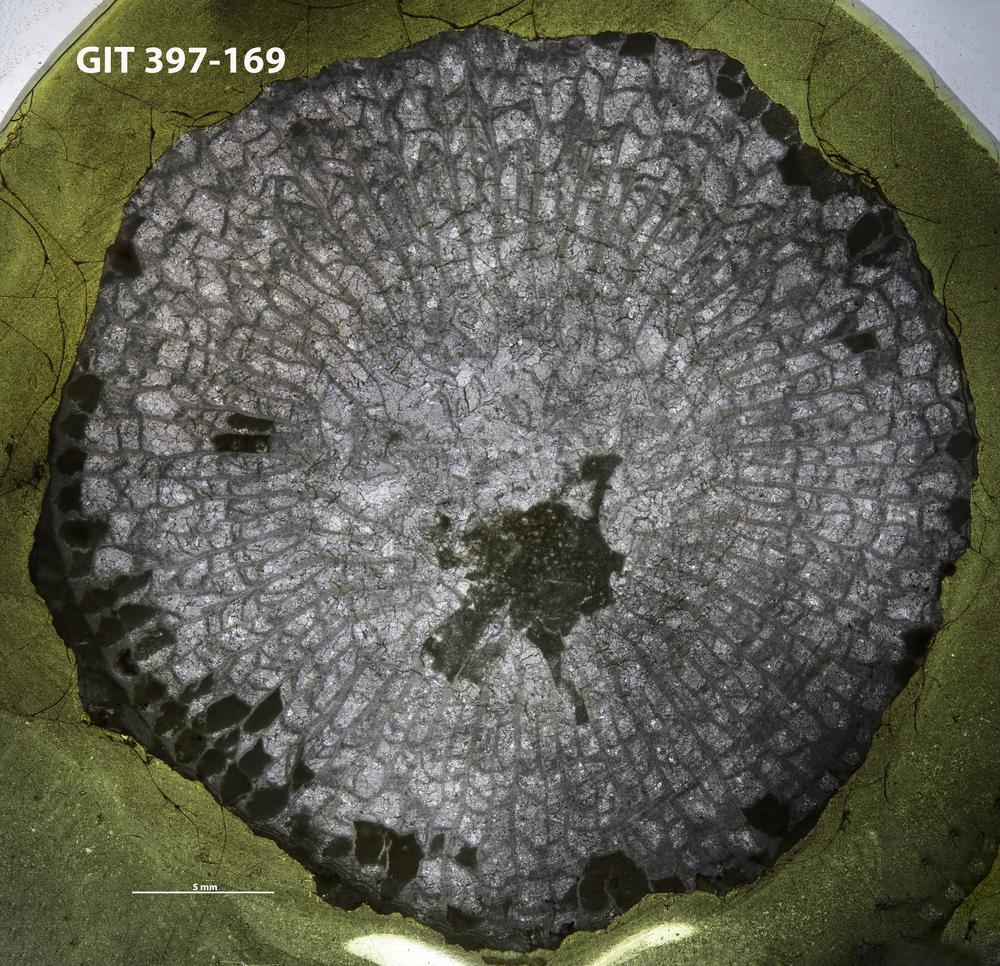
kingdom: Animalia
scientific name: Animalia
